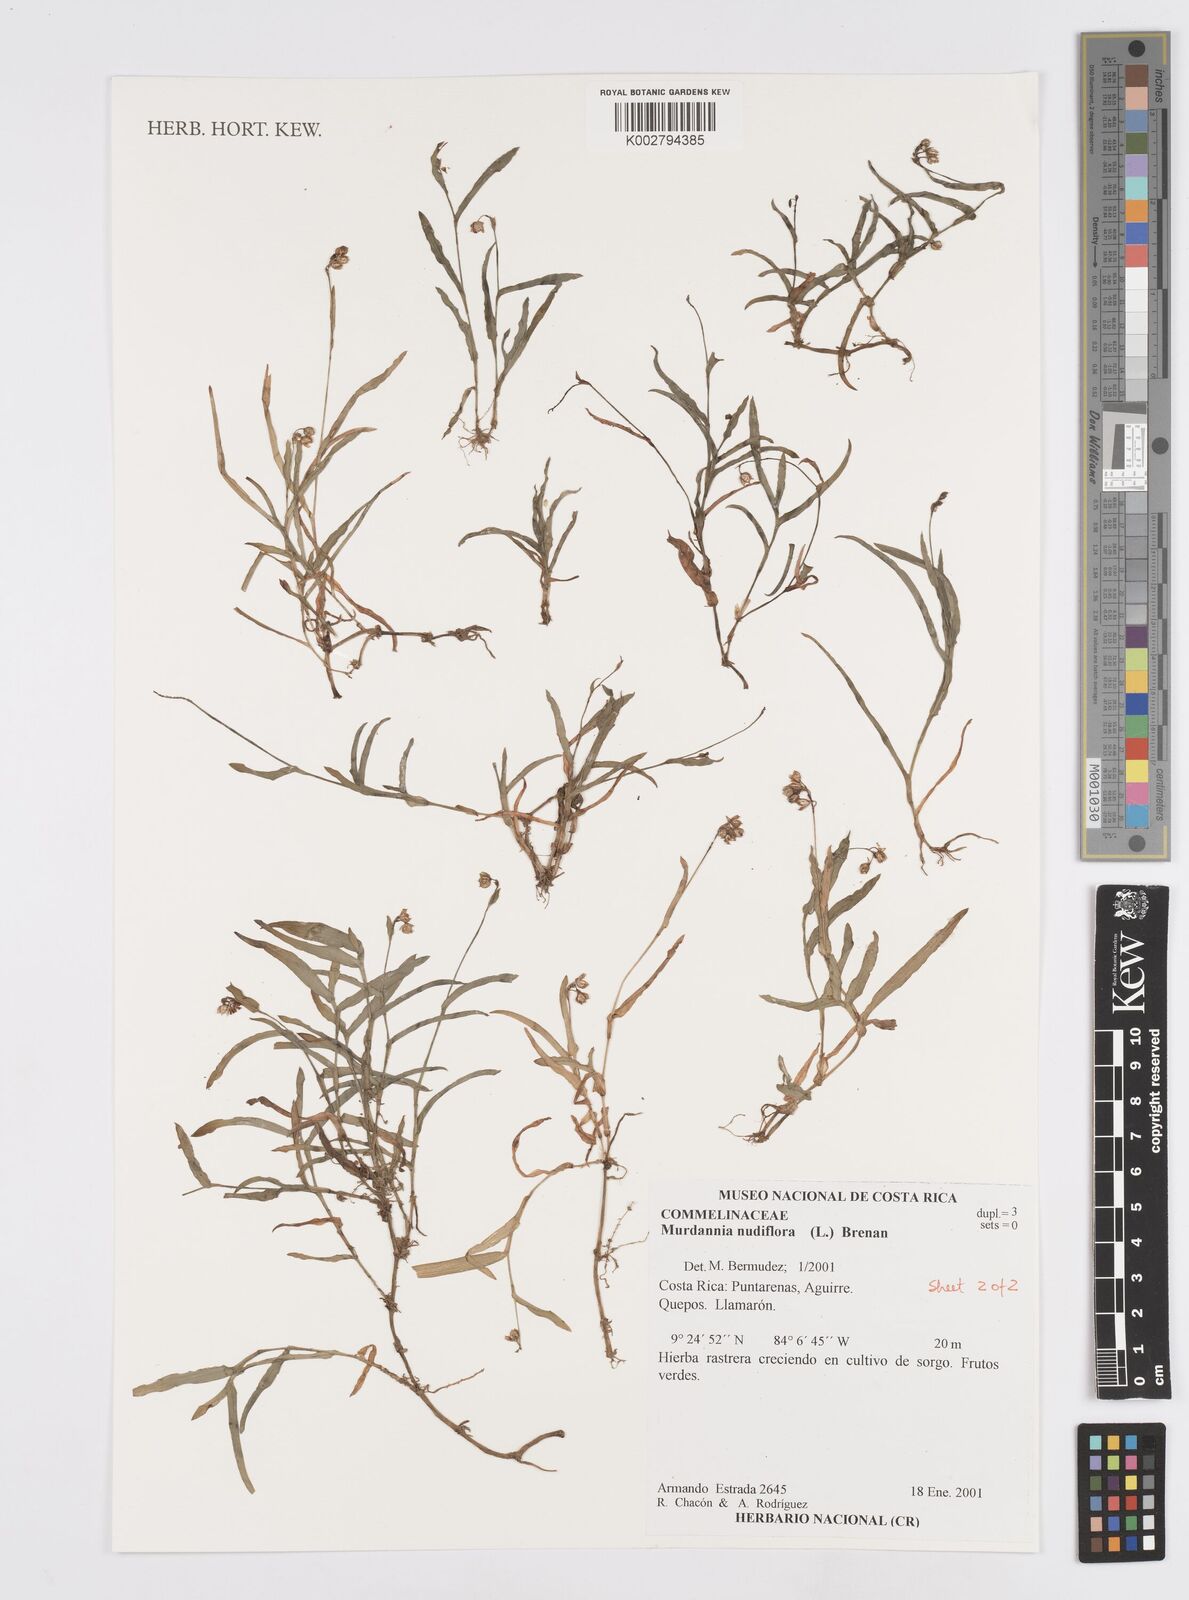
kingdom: Plantae
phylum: Tracheophyta
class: Liliopsida
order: Commelinales
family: Commelinaceae
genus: Murdannia
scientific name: Murdannia nudiflora
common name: Nakedstem dewflower
